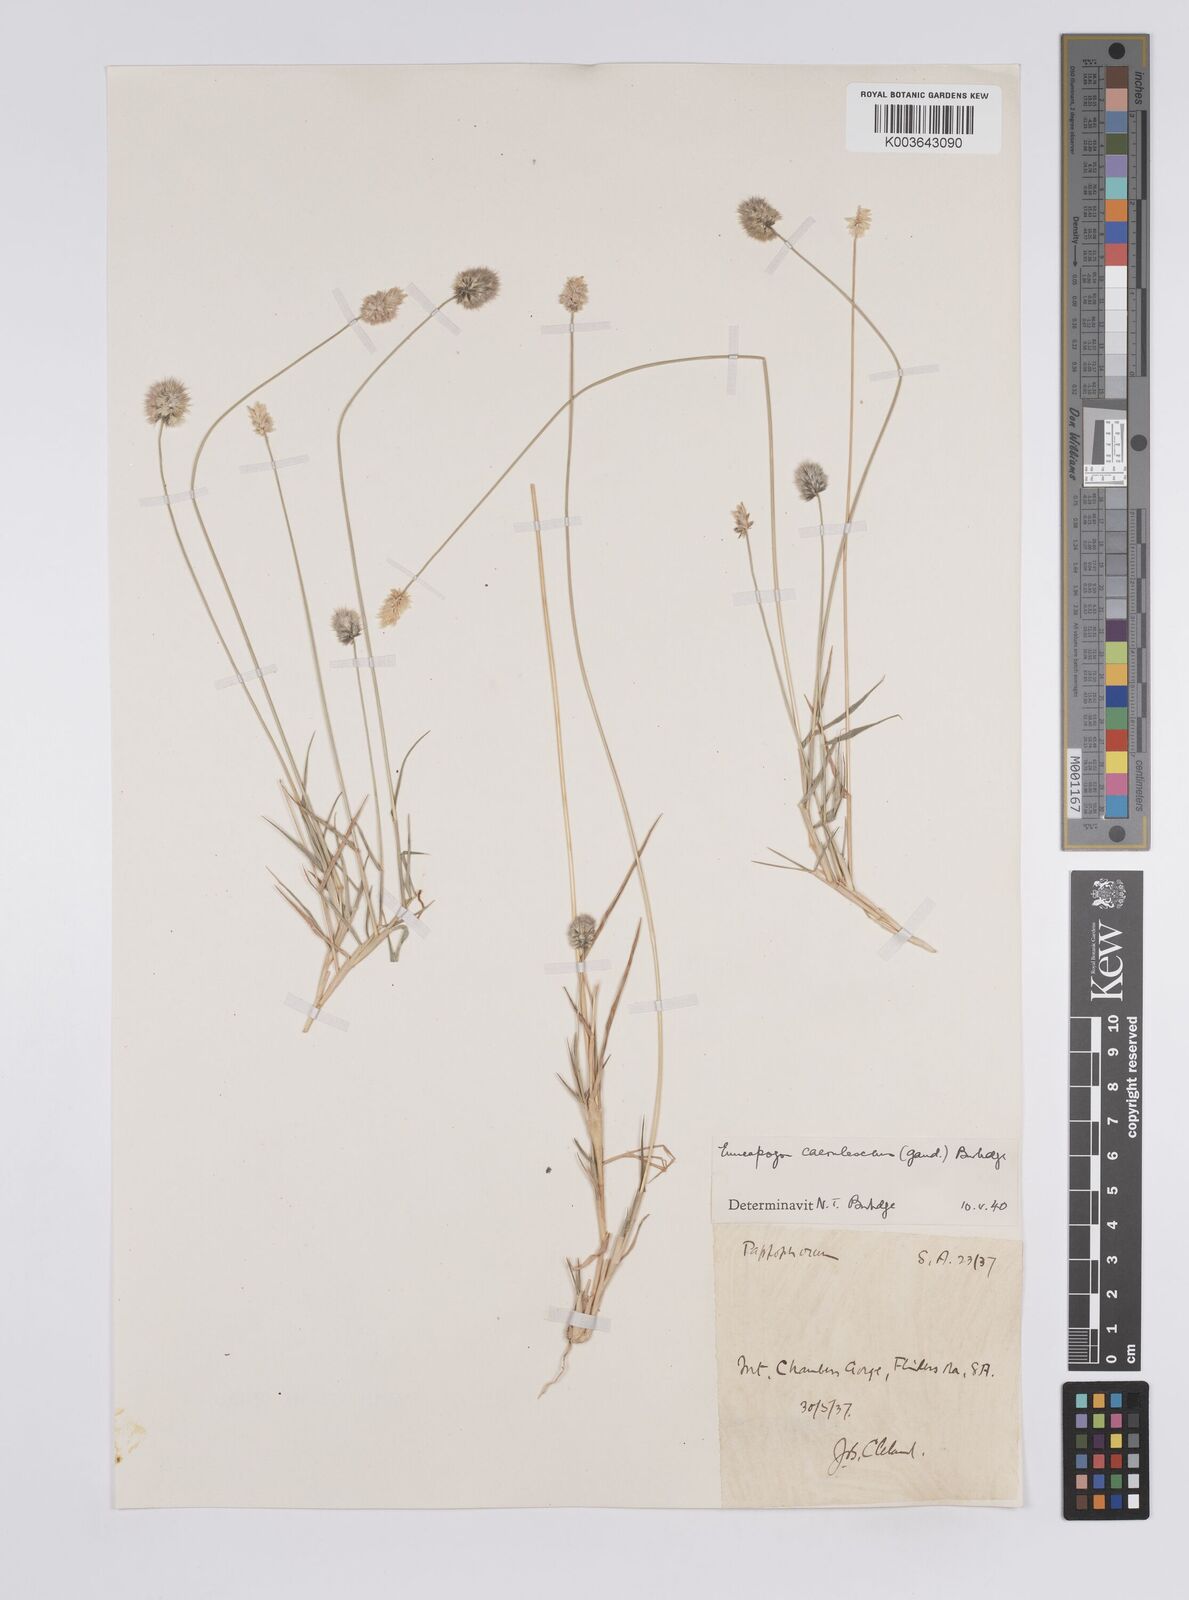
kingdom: Plantae
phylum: Tracheophyta
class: Liliopsida
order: Poales
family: Poaceae
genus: Enneapogon
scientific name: Enneapogon caerulescens
